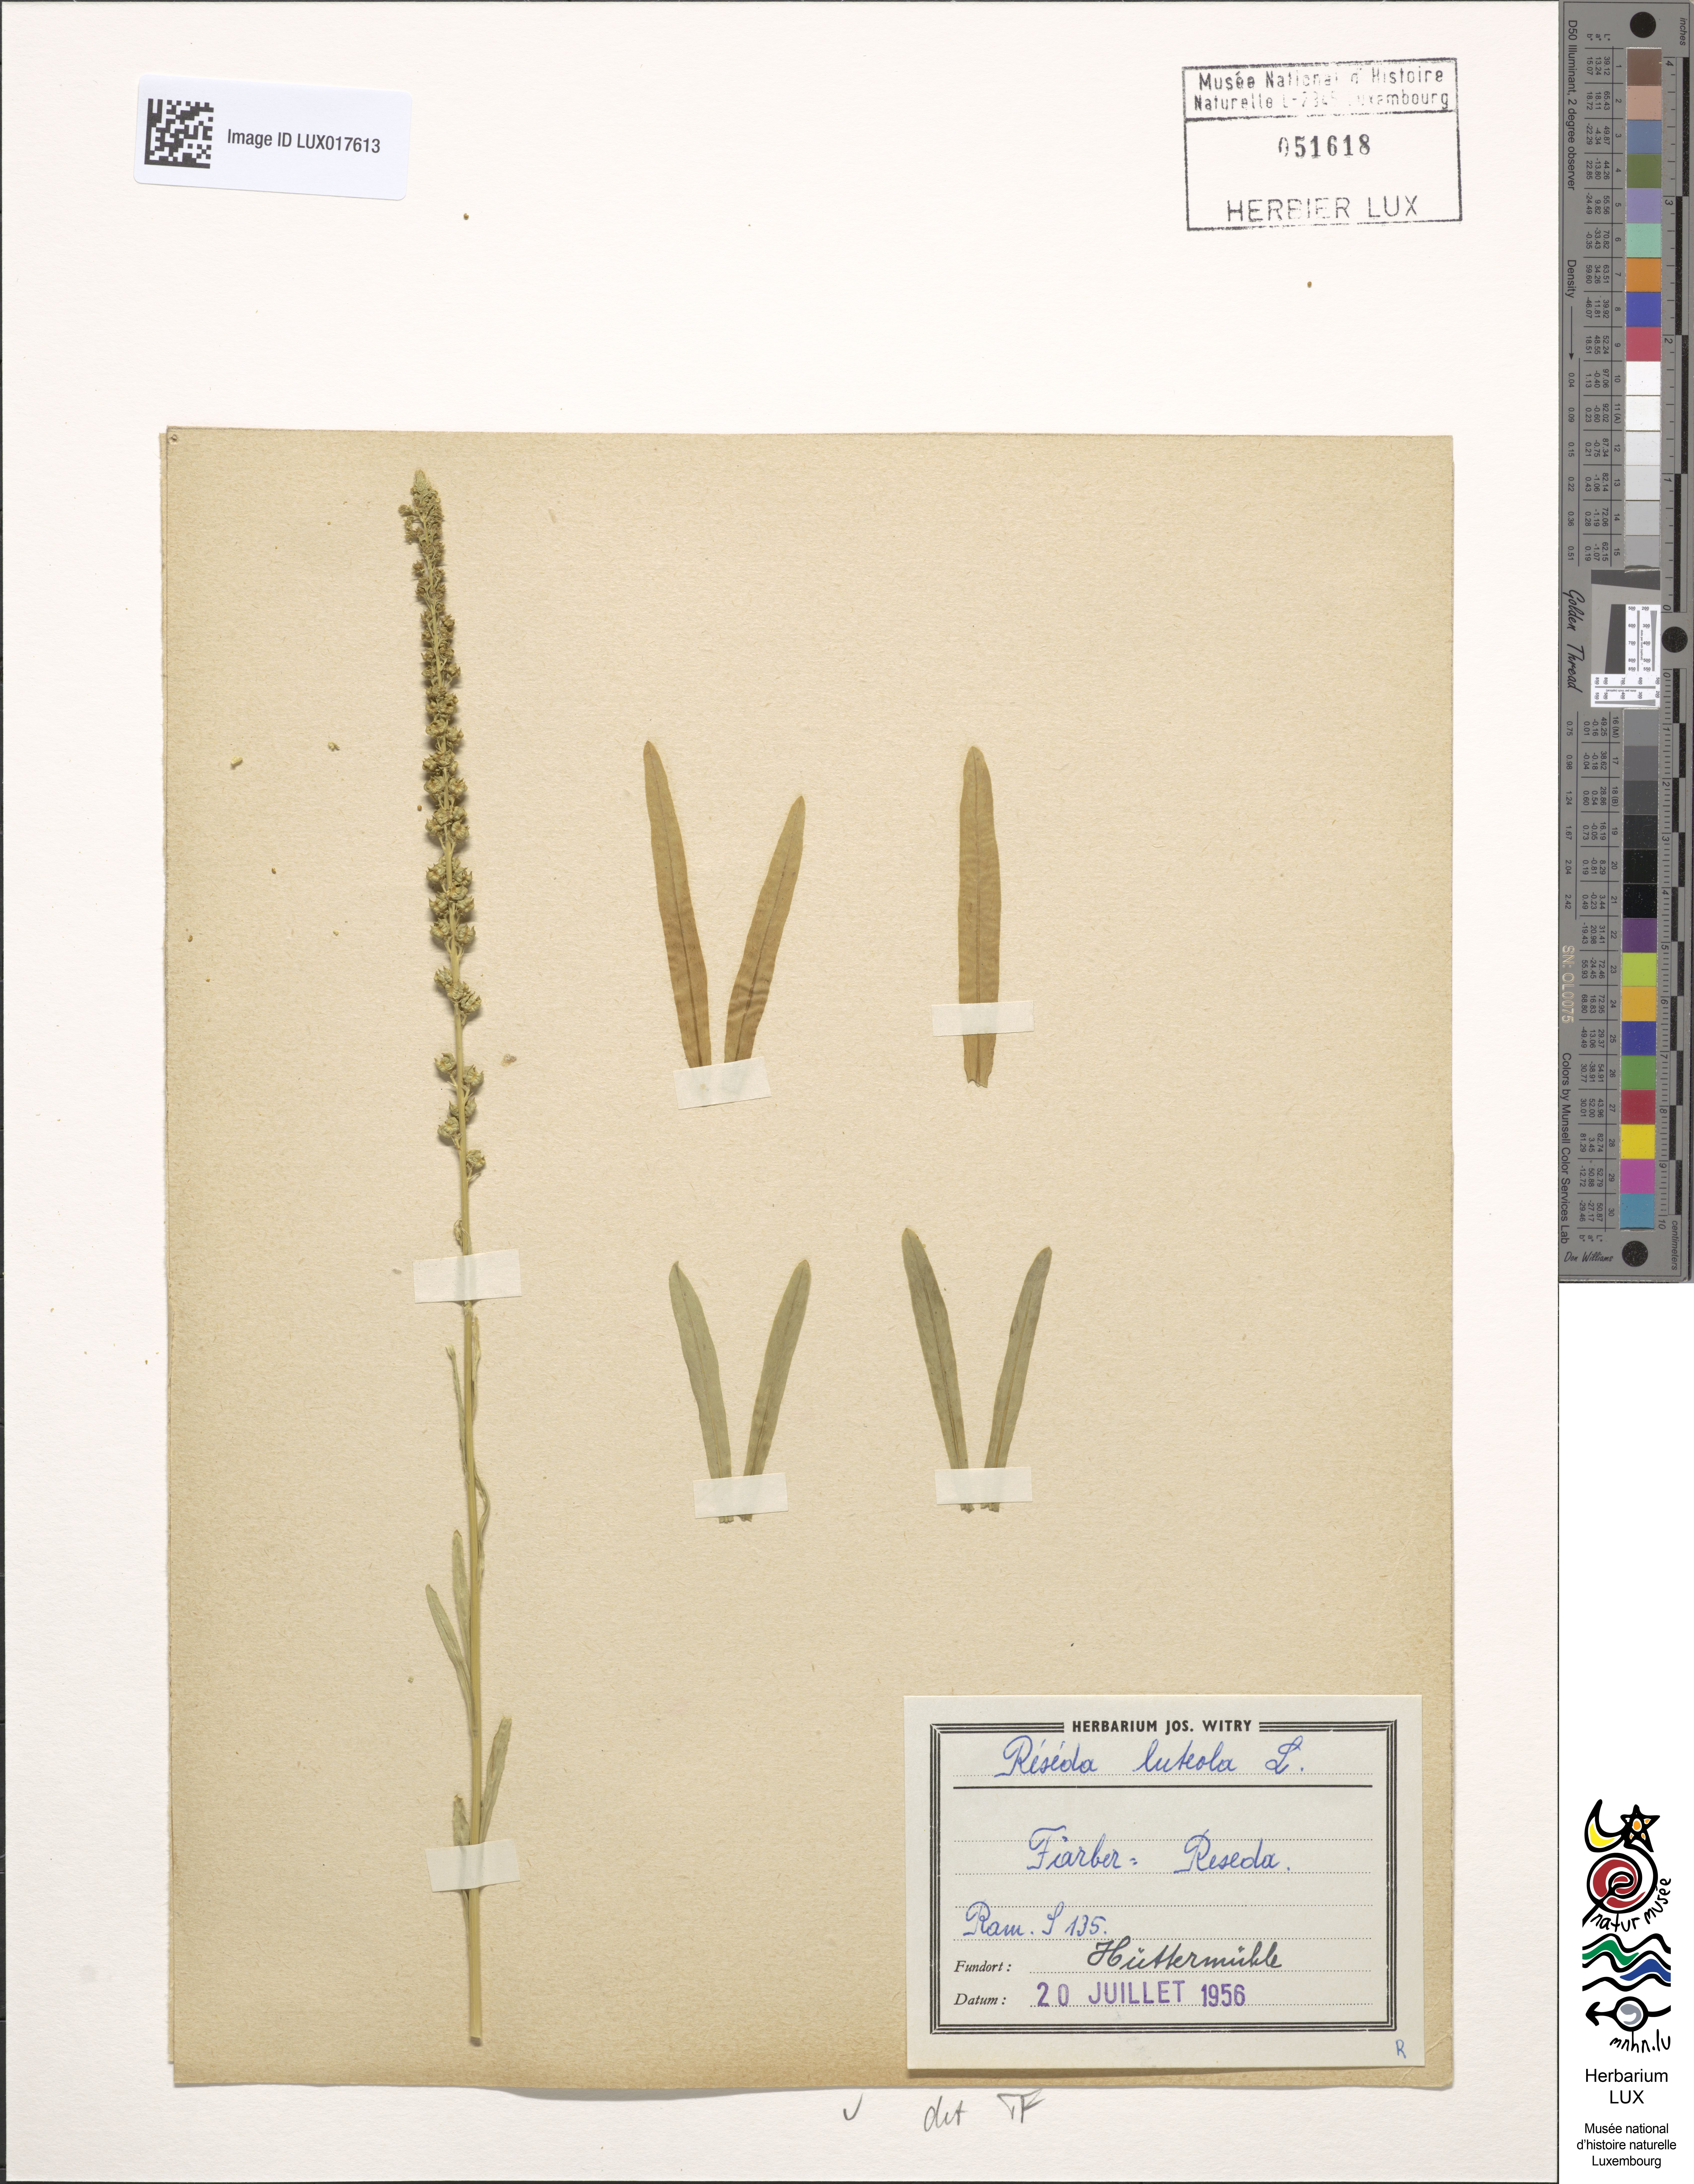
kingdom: Plantae
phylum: Tracheophyta
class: Magnoliopsida
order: Brassicales
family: Resedaceae
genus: Reseda
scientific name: Reseda luteola
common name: Weld
